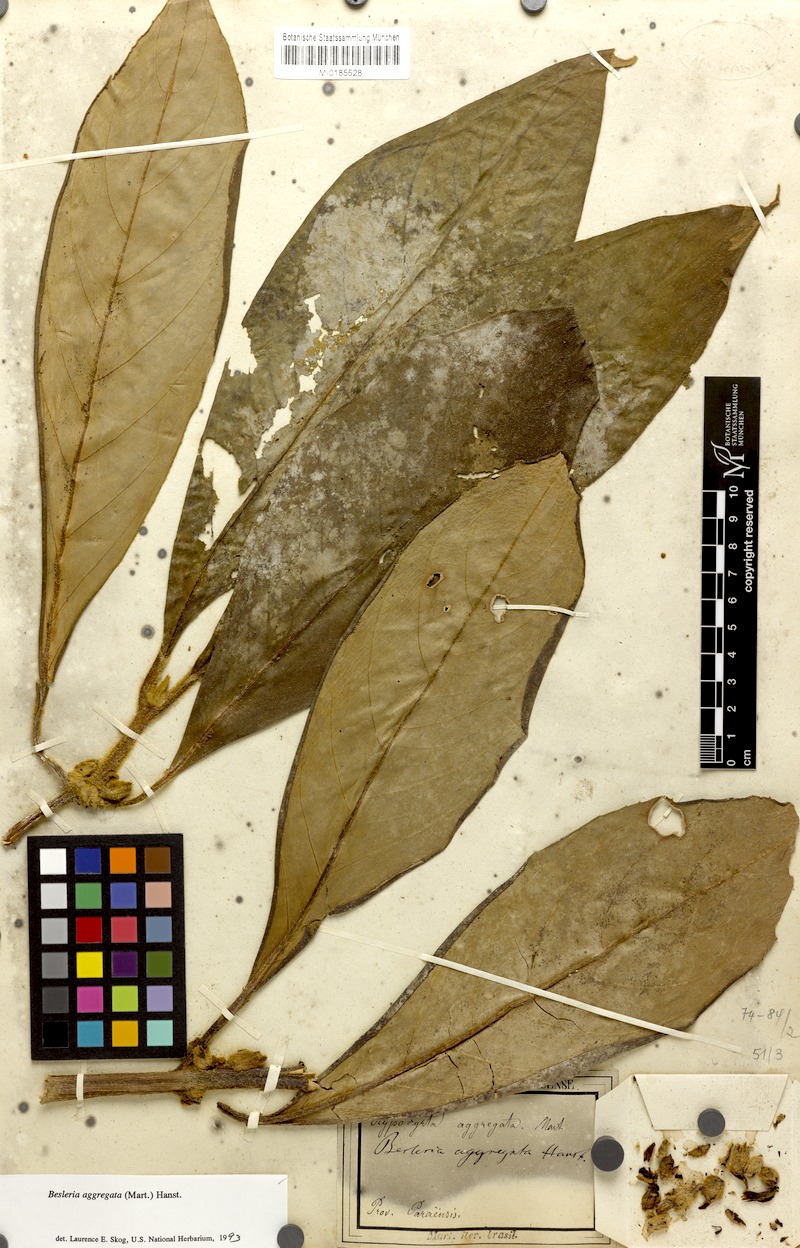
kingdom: Plantae
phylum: Tracheophyta
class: Magnoliopsida
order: Lamiales
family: Gesneriaceae
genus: Besleria
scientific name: Besleria aggregata
